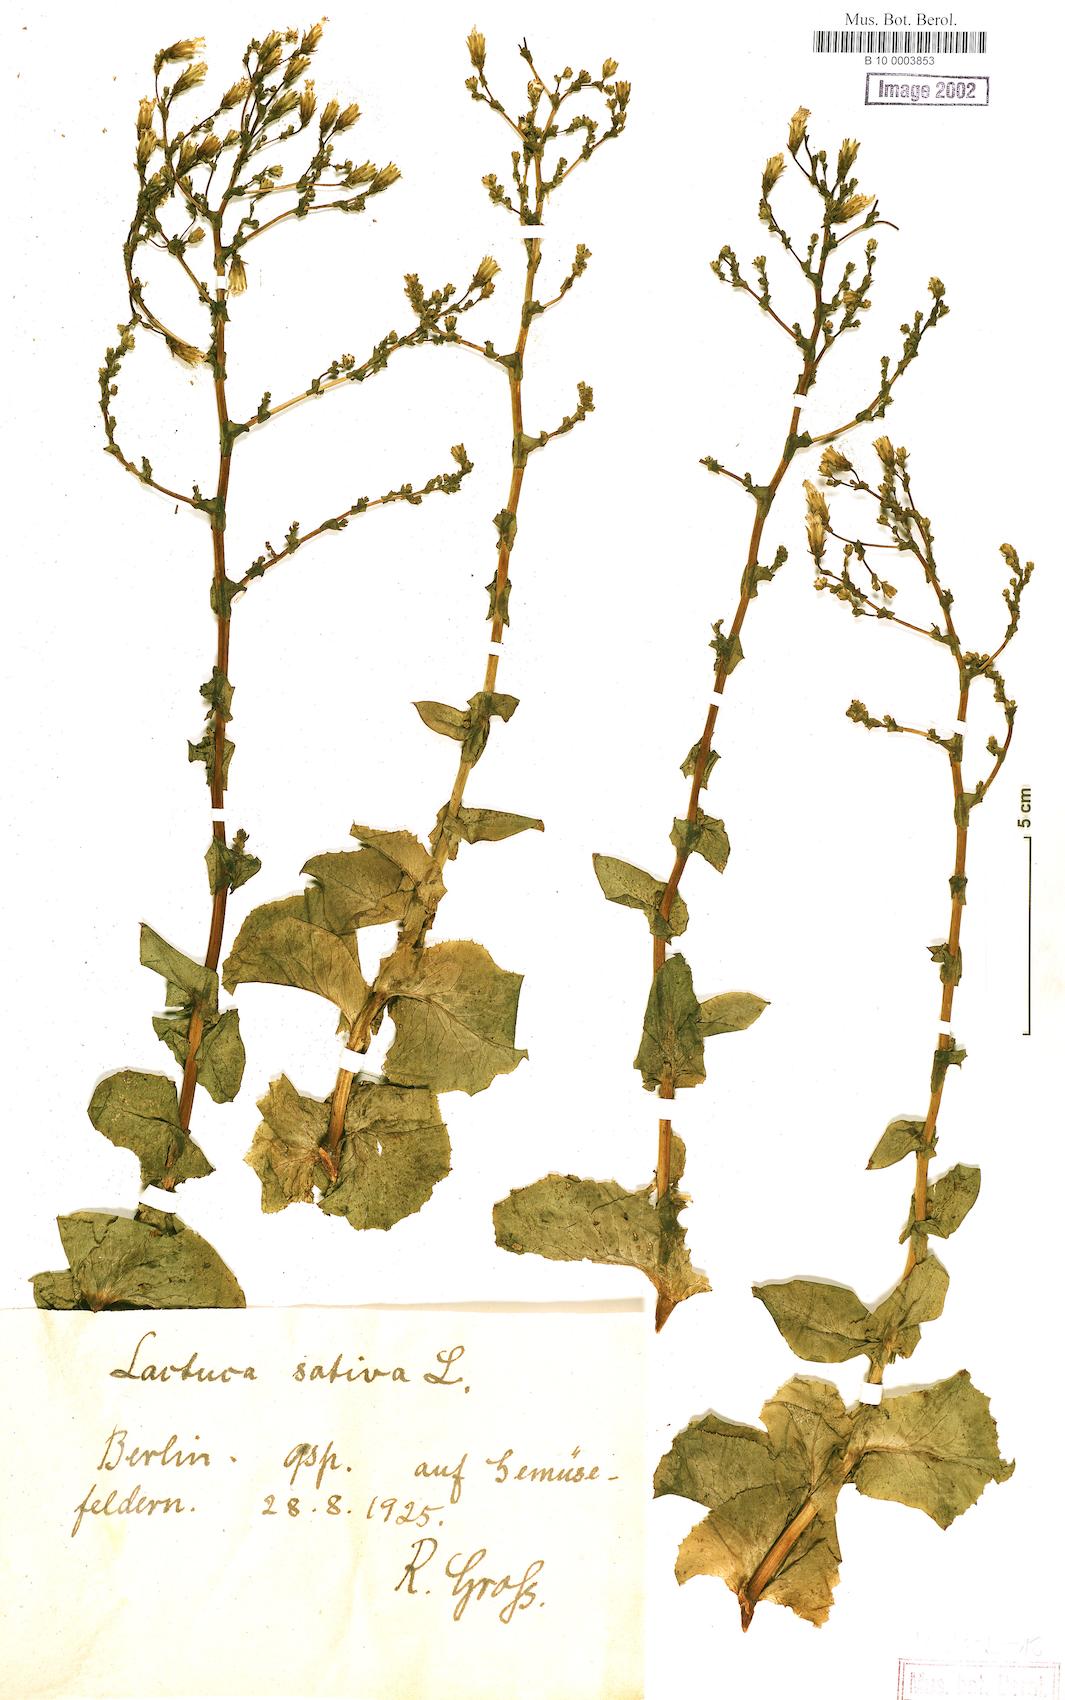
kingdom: Plantae
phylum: Tracheophyta
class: Magnoliopsida
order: Asterales
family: Asteraceae
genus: Lactuca
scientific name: Lactuca sativa
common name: Garden lettuce
